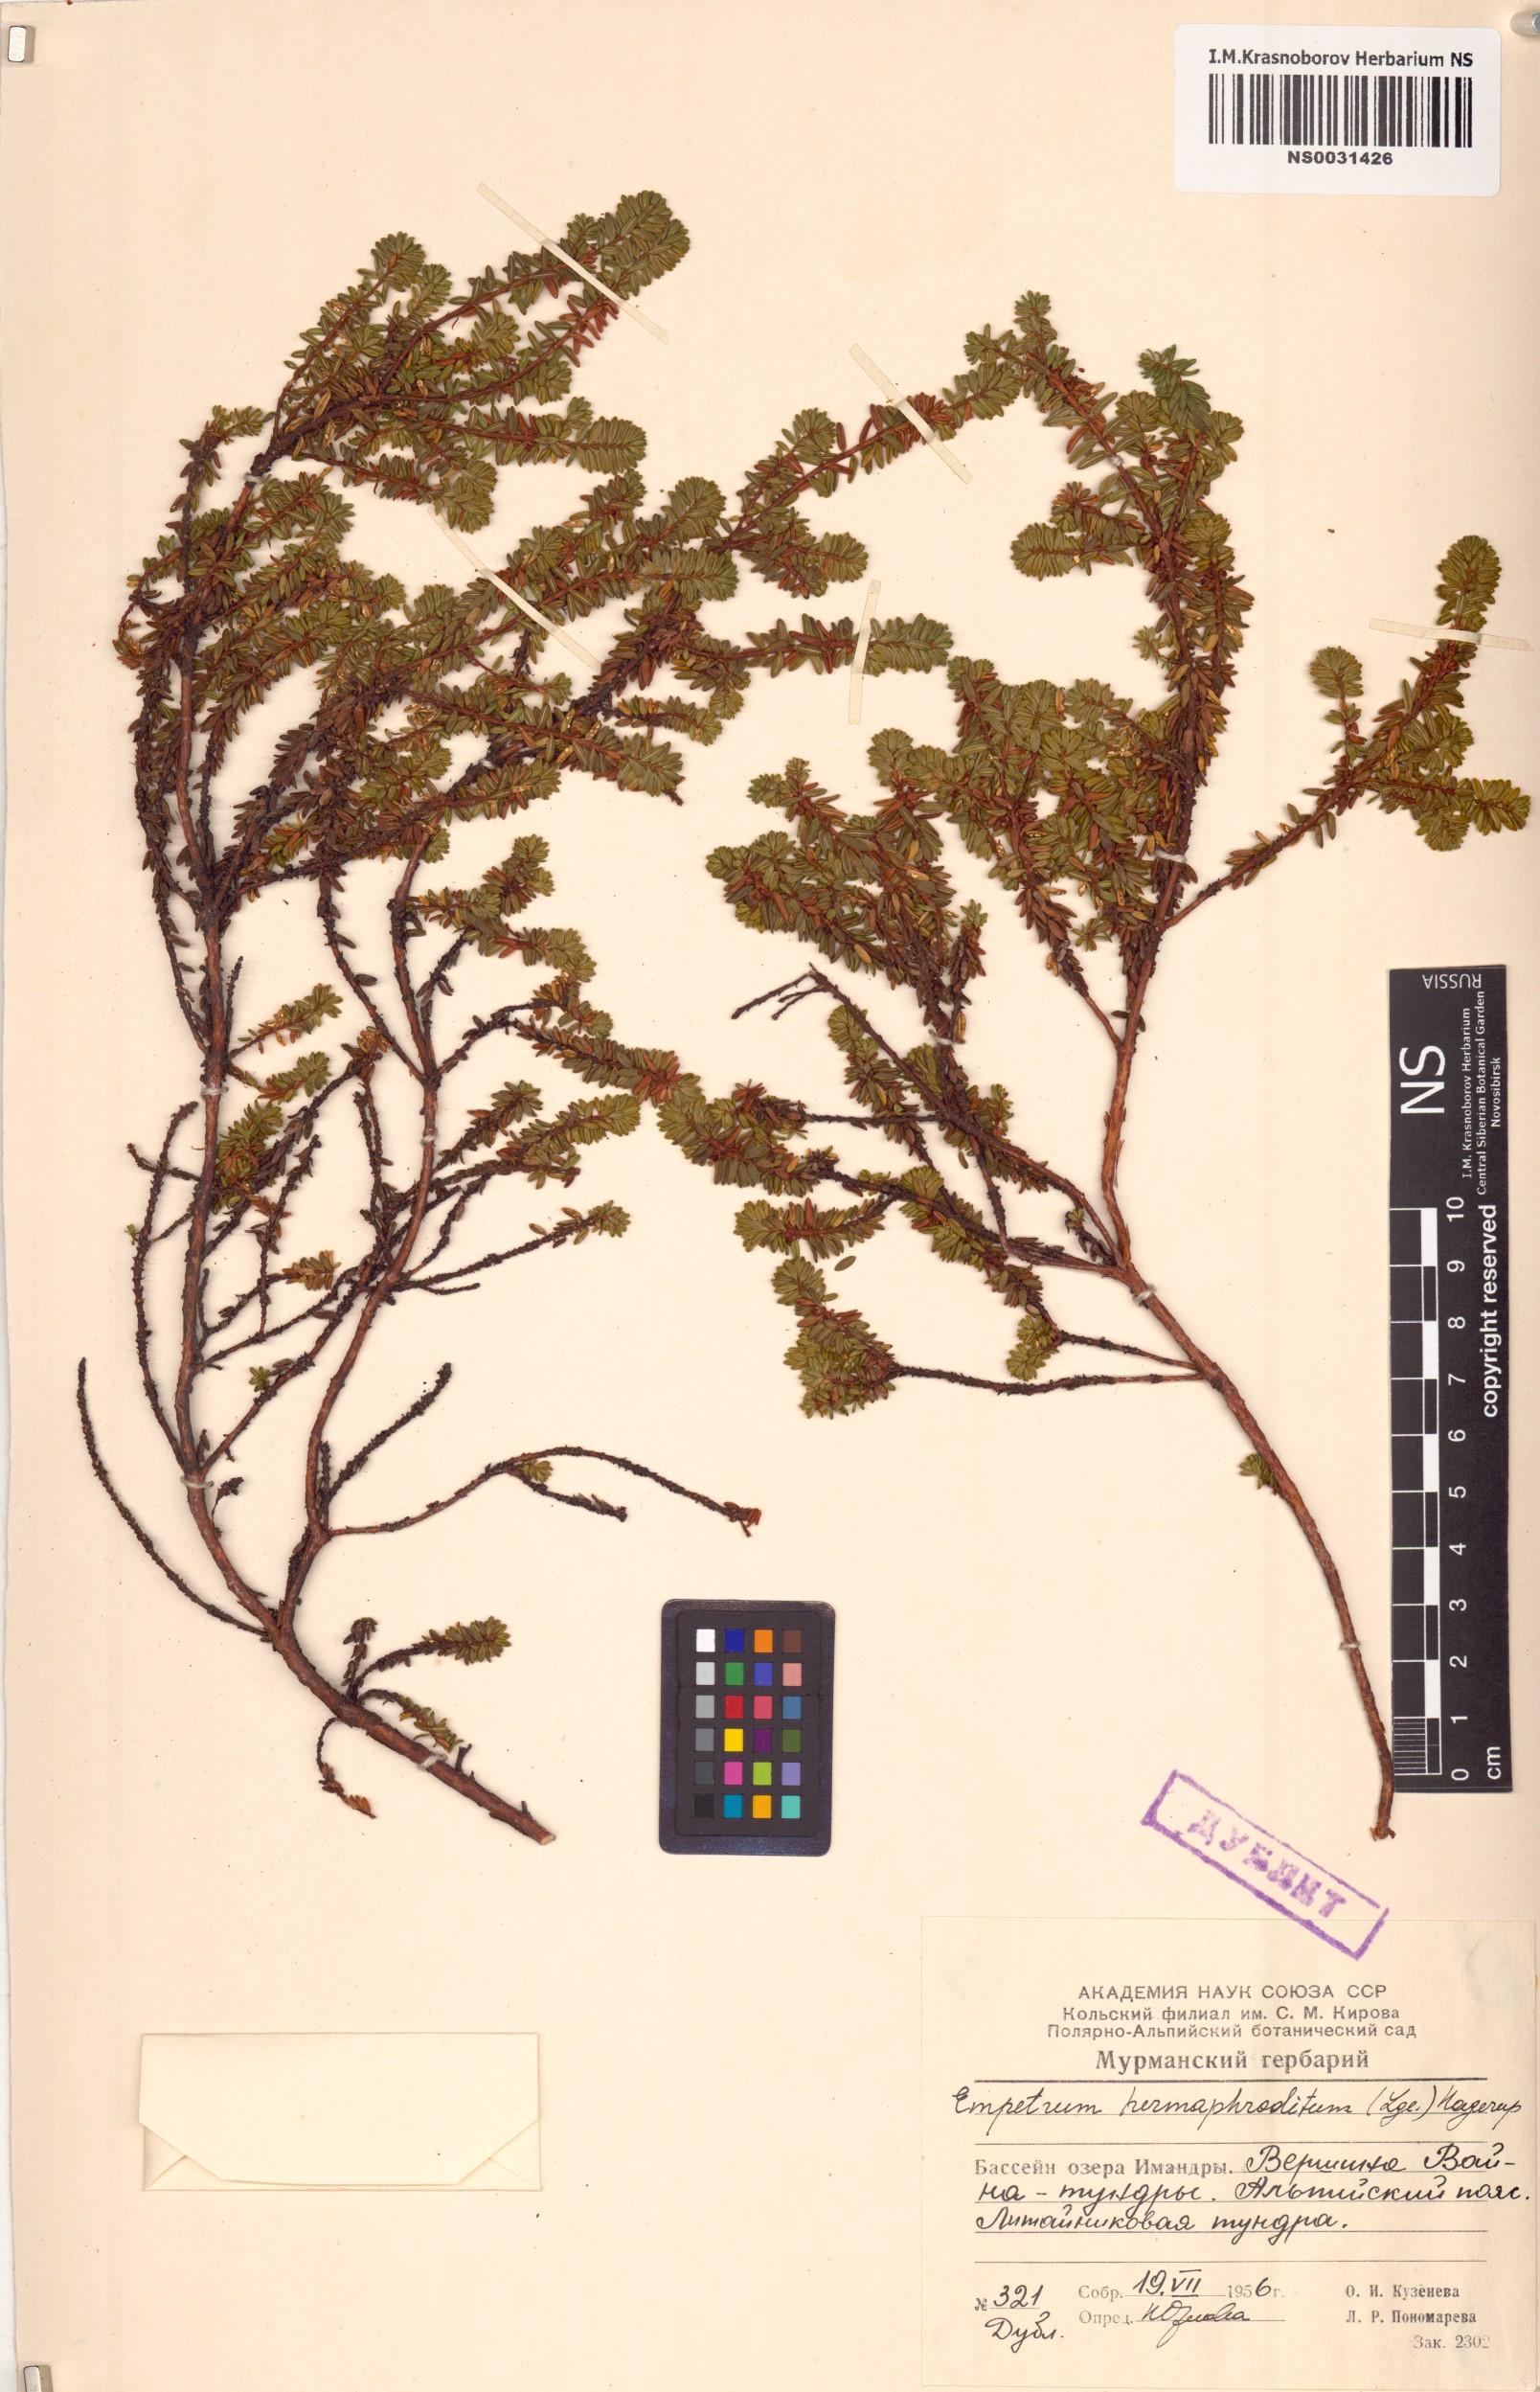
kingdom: Plantae
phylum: Tracheophyta
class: Magnoliopsida
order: Ericales
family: Ericaceae
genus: Empetrum
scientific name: Empetrum hermaphroditum
